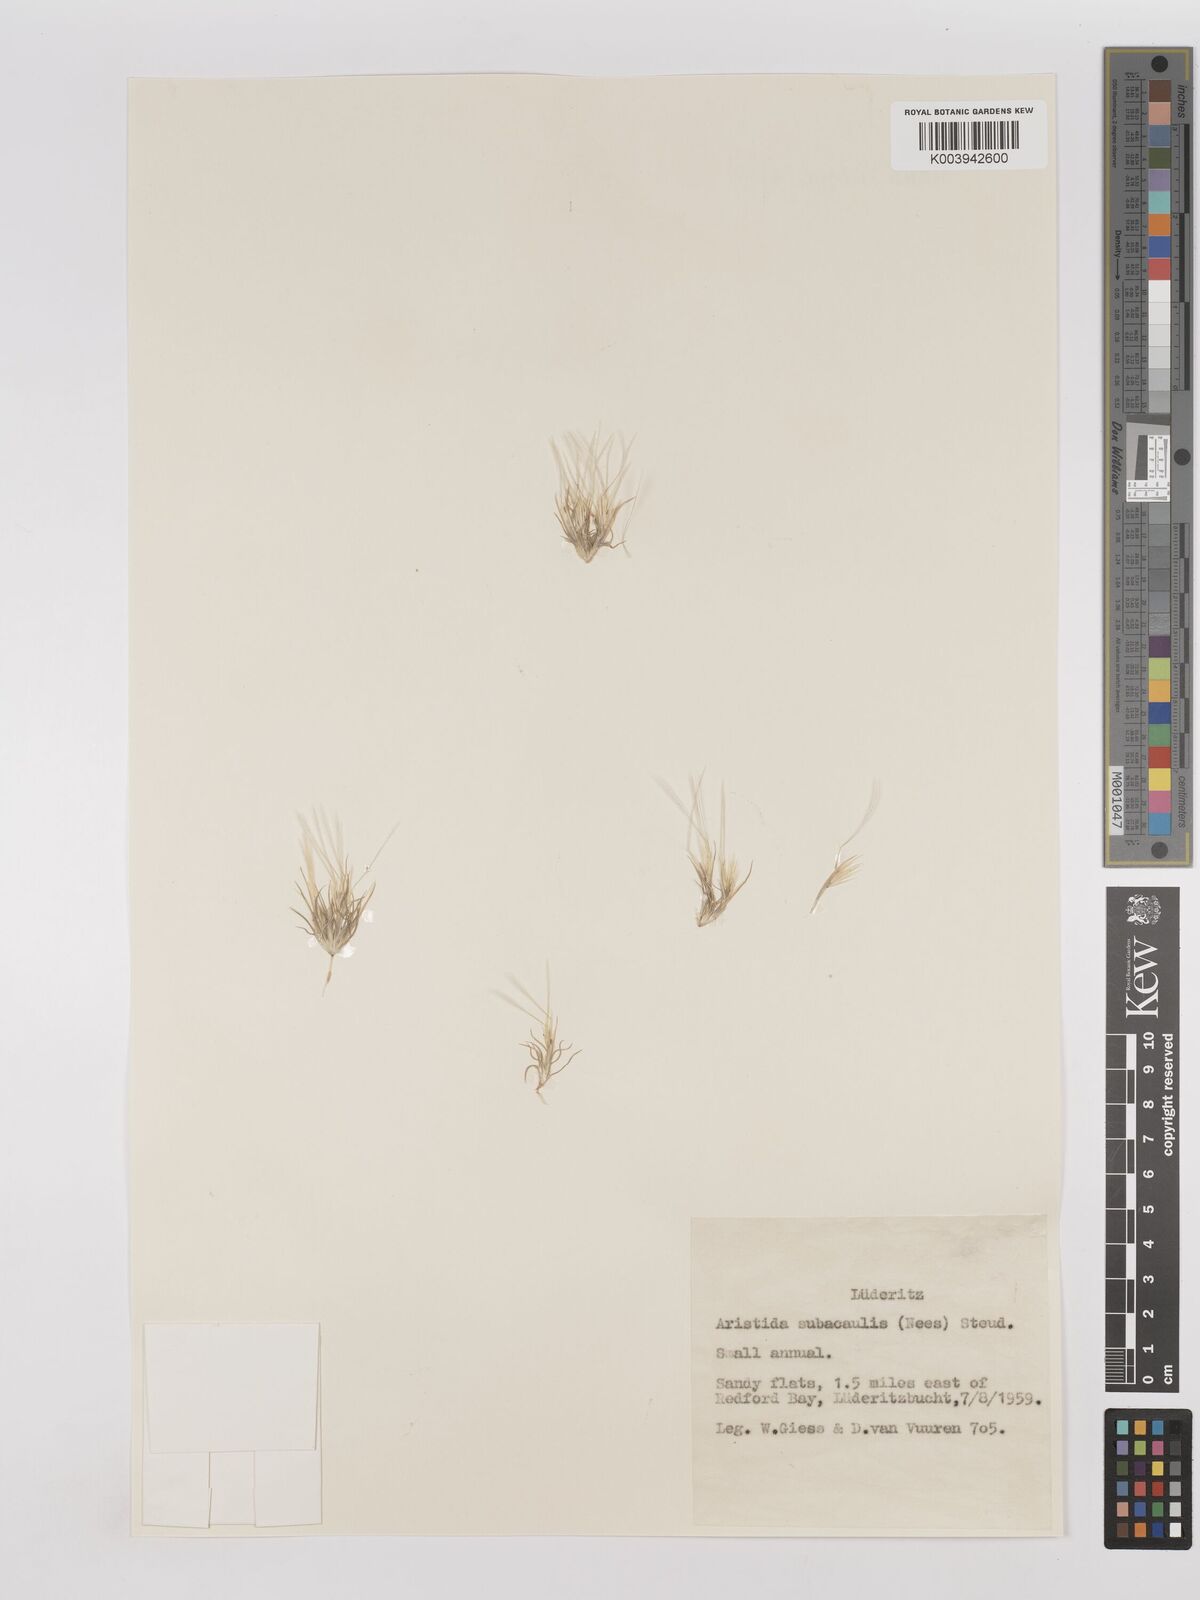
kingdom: Plantae
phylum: Tracheophyta
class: Liliopsida
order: Poales
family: Poaceae
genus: Stipagrostis
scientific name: Stipagrostis subacaulis
